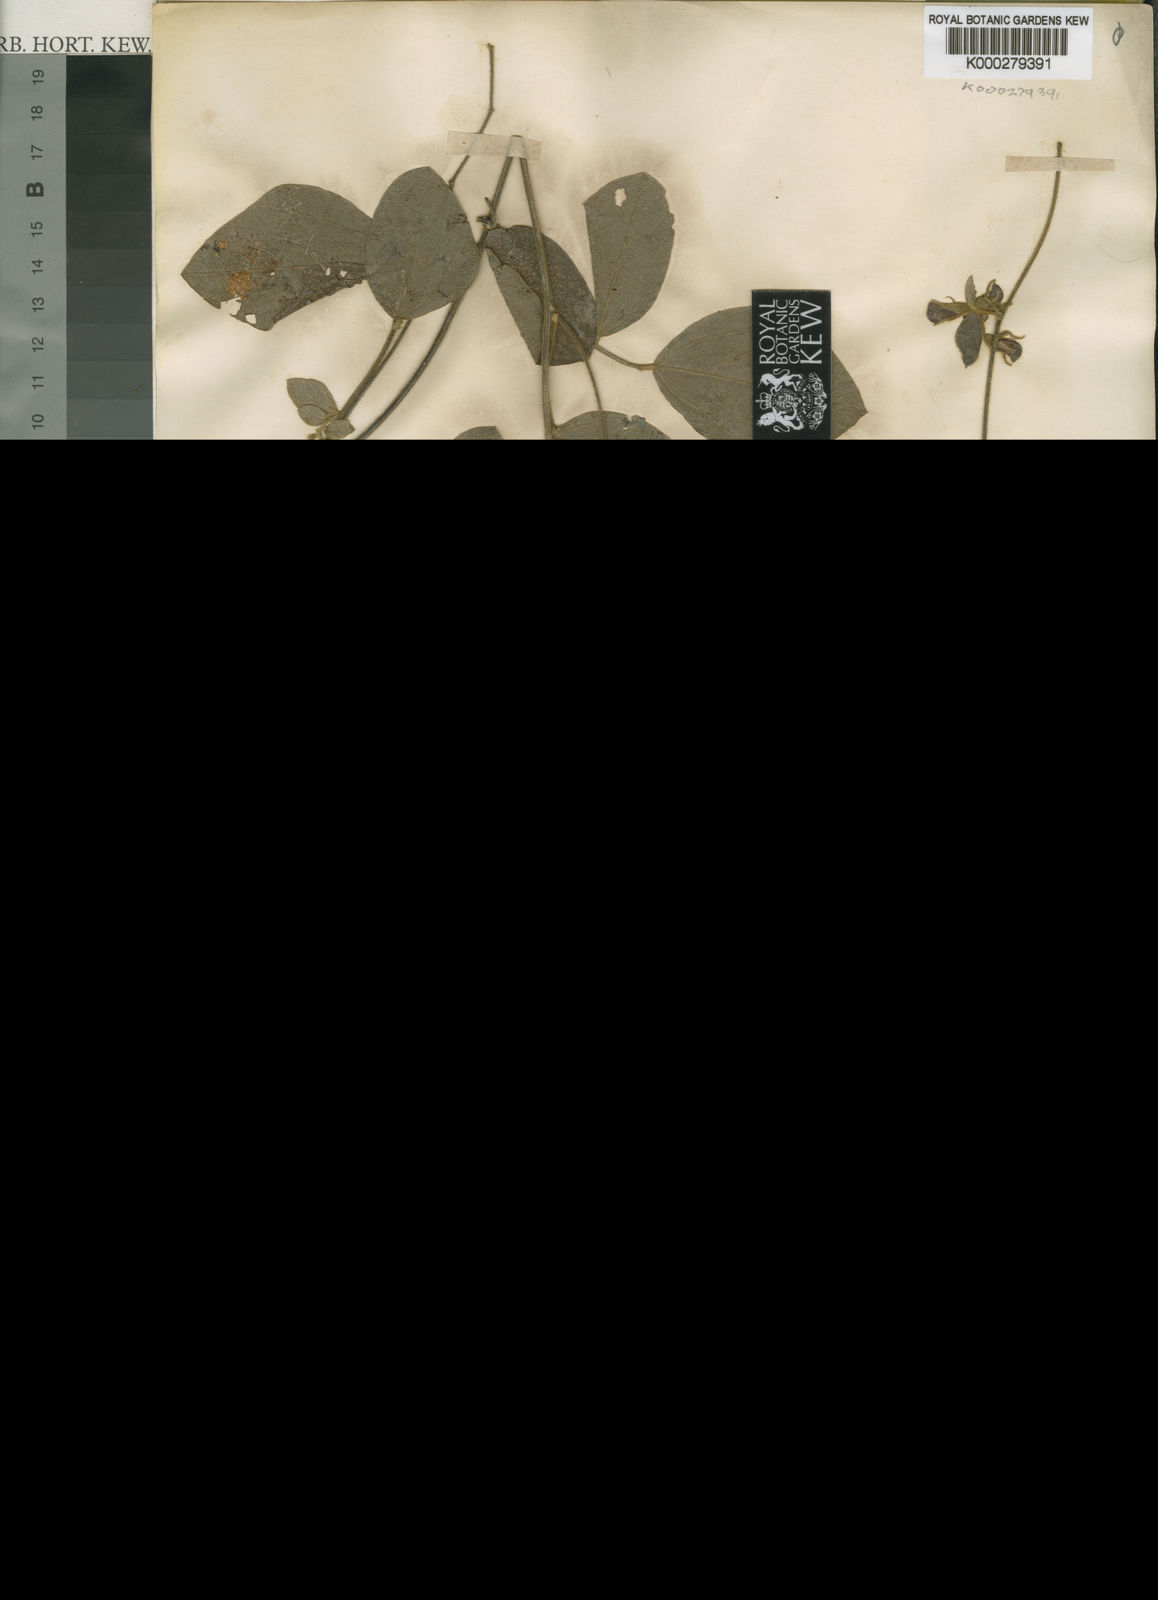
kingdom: Plantae
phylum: Tracheophyta
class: Magnoliopsida
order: Fabales
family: Fabaceae
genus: Cajanus
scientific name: Cajanus reticulatus
